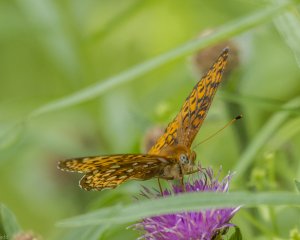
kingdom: Animalia
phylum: Arthropoda
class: Insecta
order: Lepidoptera
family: Nymphalidae
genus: Speyeria
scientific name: Speyeria atlantis
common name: Atlantis Fritillary
